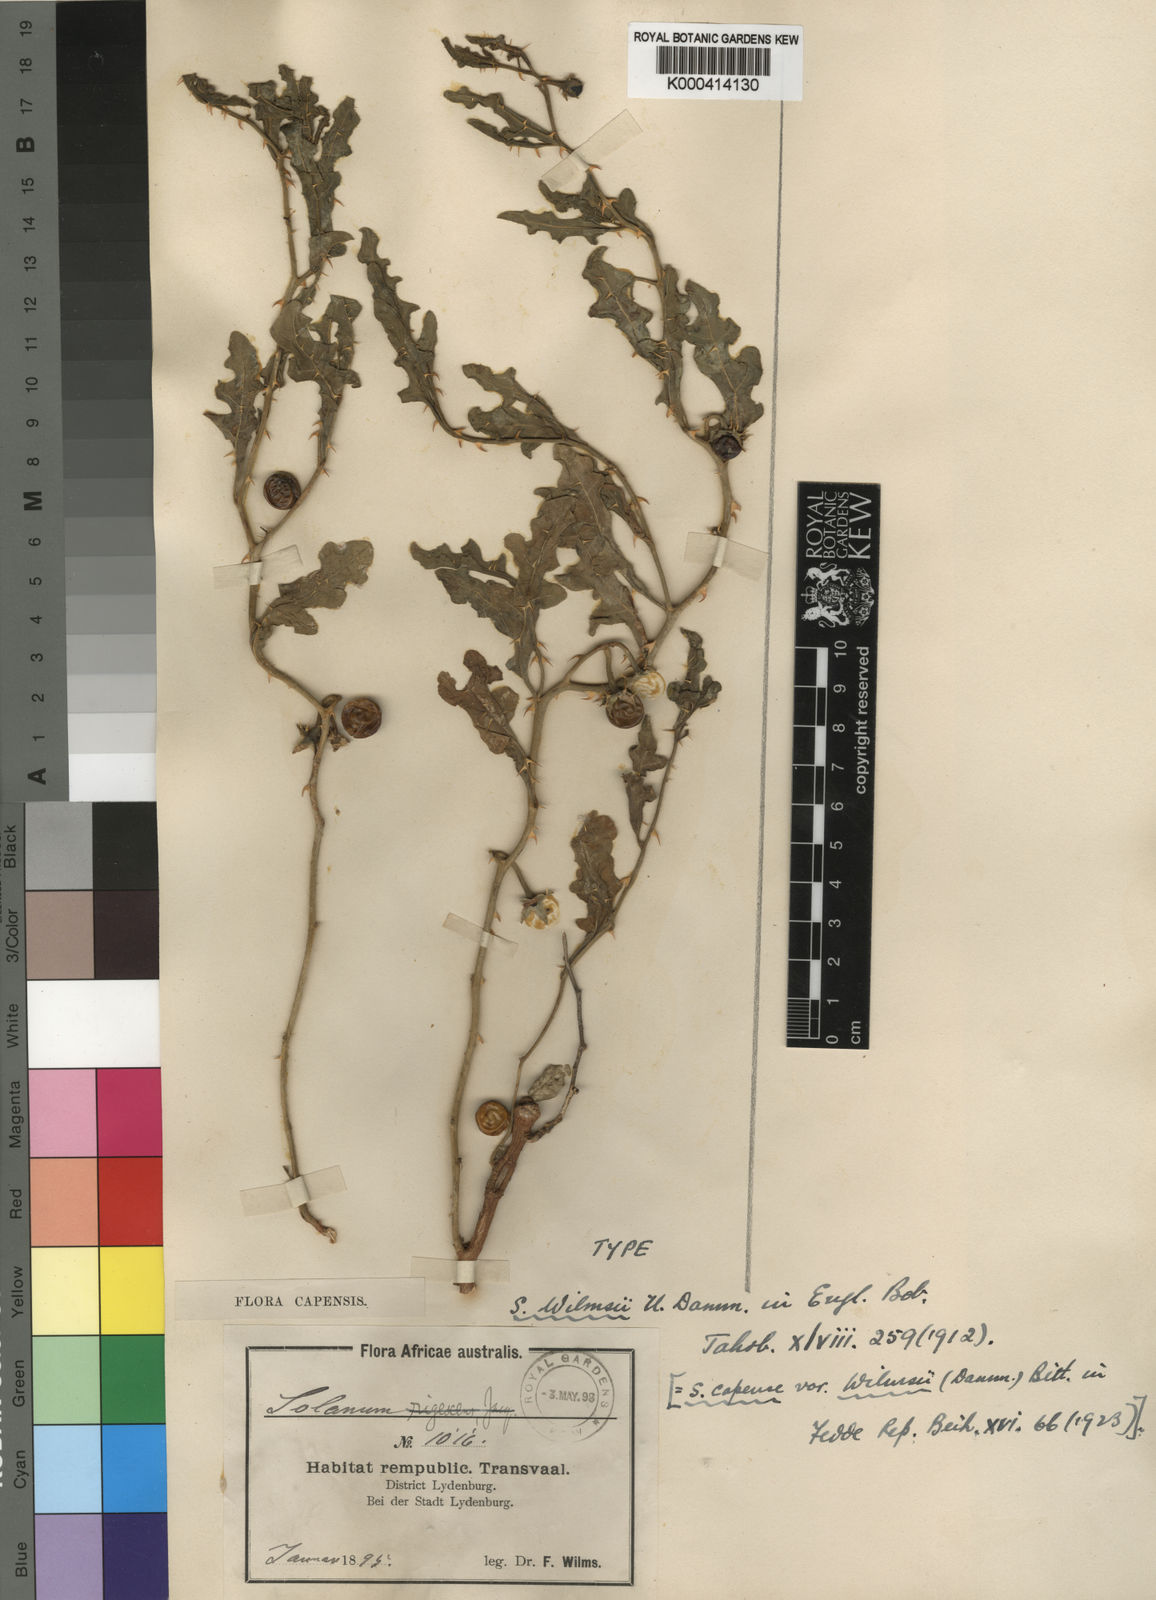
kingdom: Plantae
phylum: Tracheophyta
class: Magnoliopsida
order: Solanales
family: Solanaceae
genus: Solanum
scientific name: Solanum sodomaeodes
